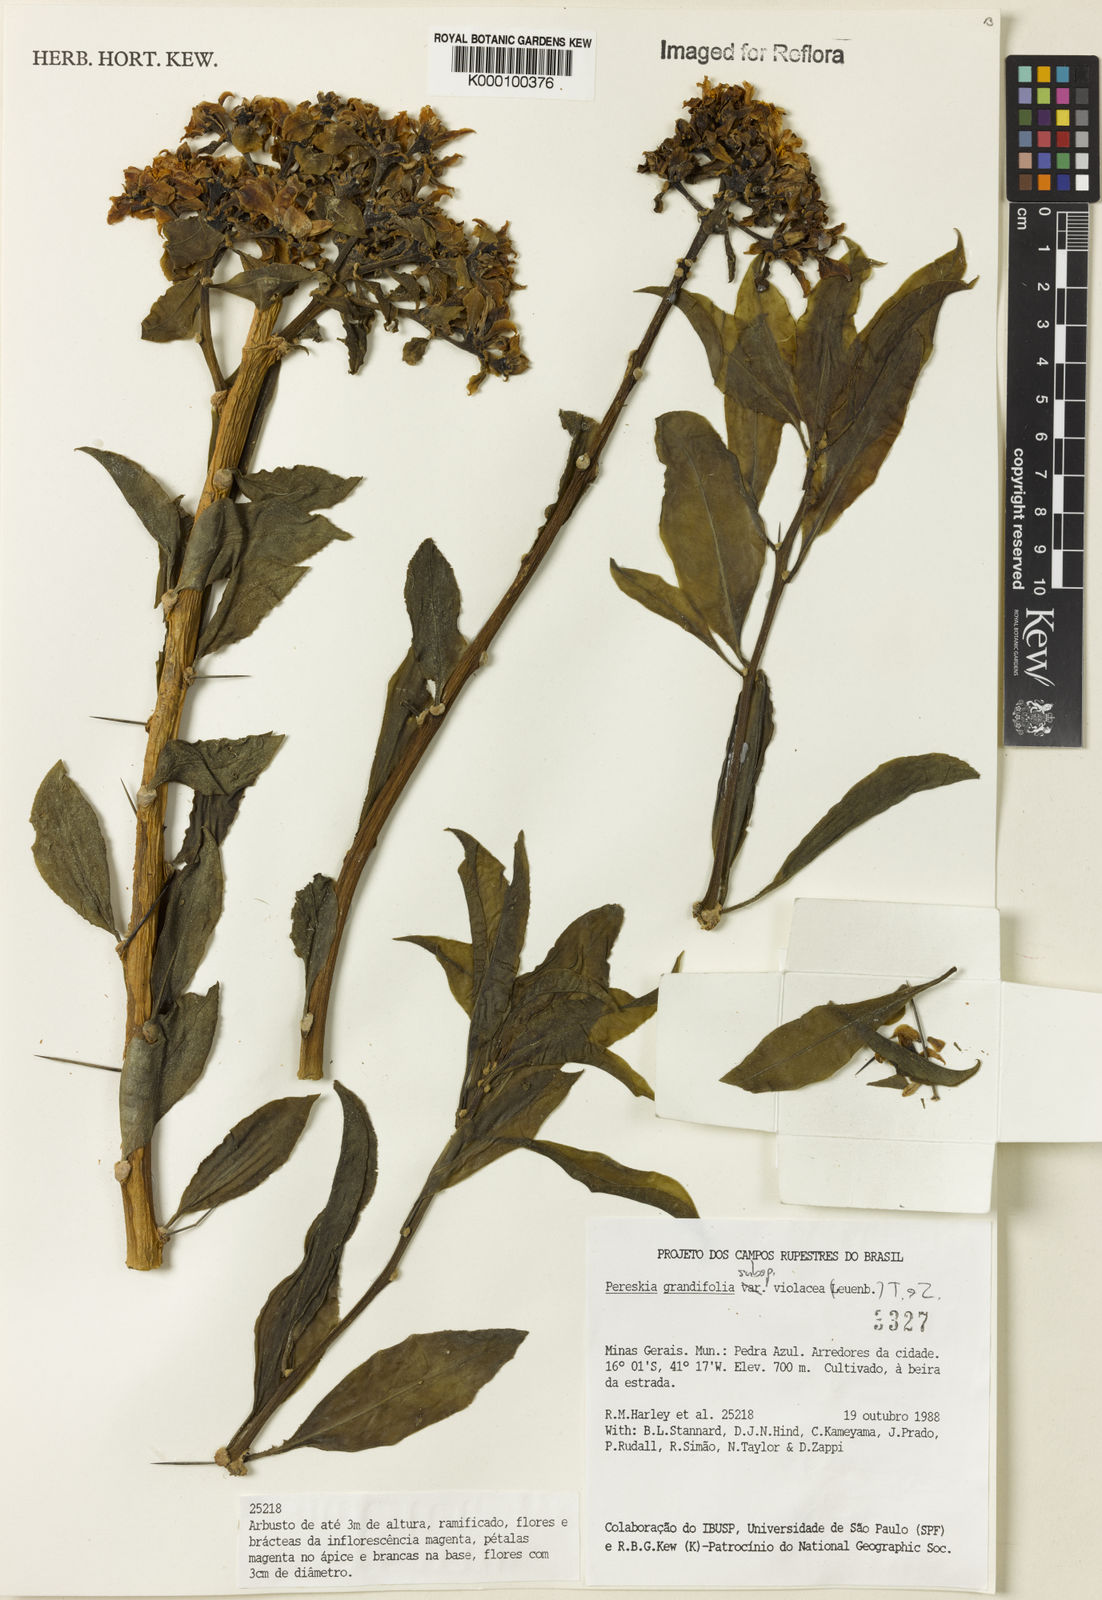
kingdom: Plantae
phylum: Tracheophyta
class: Magnoliopsida
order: Caryophyllales
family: Cactaceae
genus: Pereskia
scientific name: Pereskia violacea
